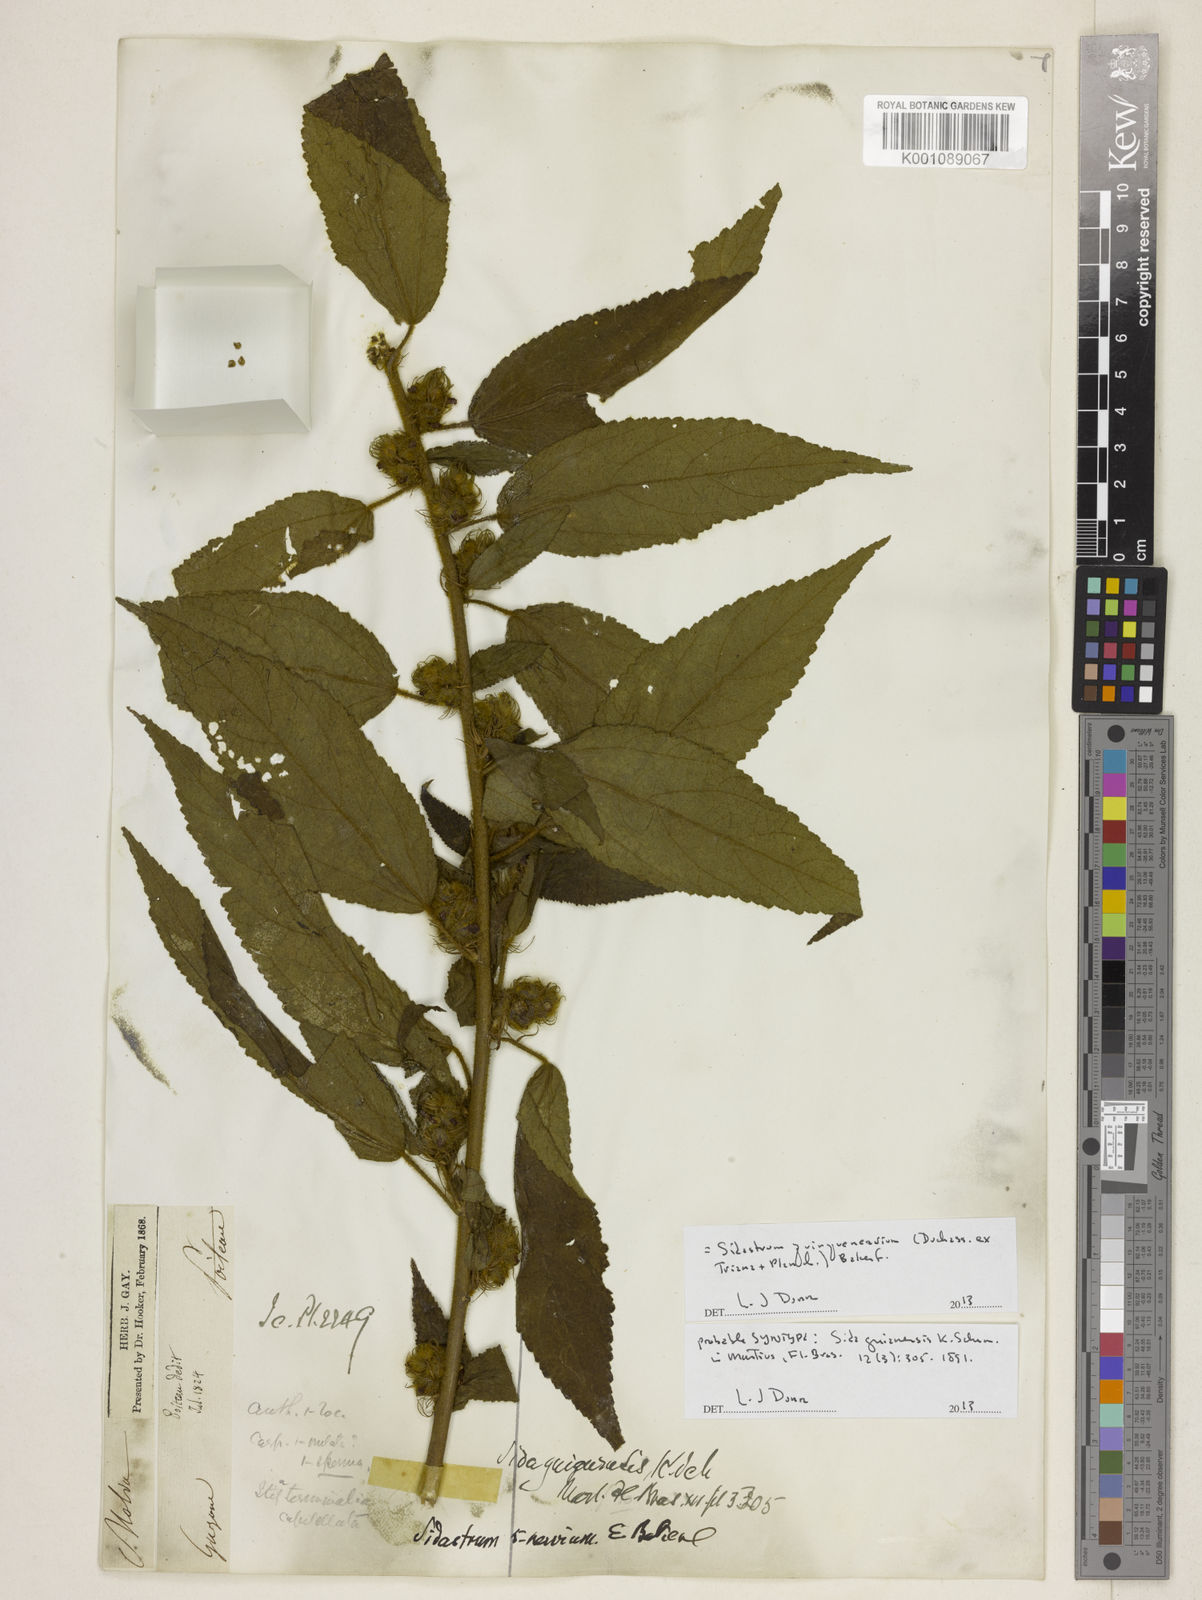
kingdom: Plantae
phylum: Tracheophyta
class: Magnoliopsida
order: Malvales
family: Malvaceae
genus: Sidastrum
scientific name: Sidastrum quinquenervium
